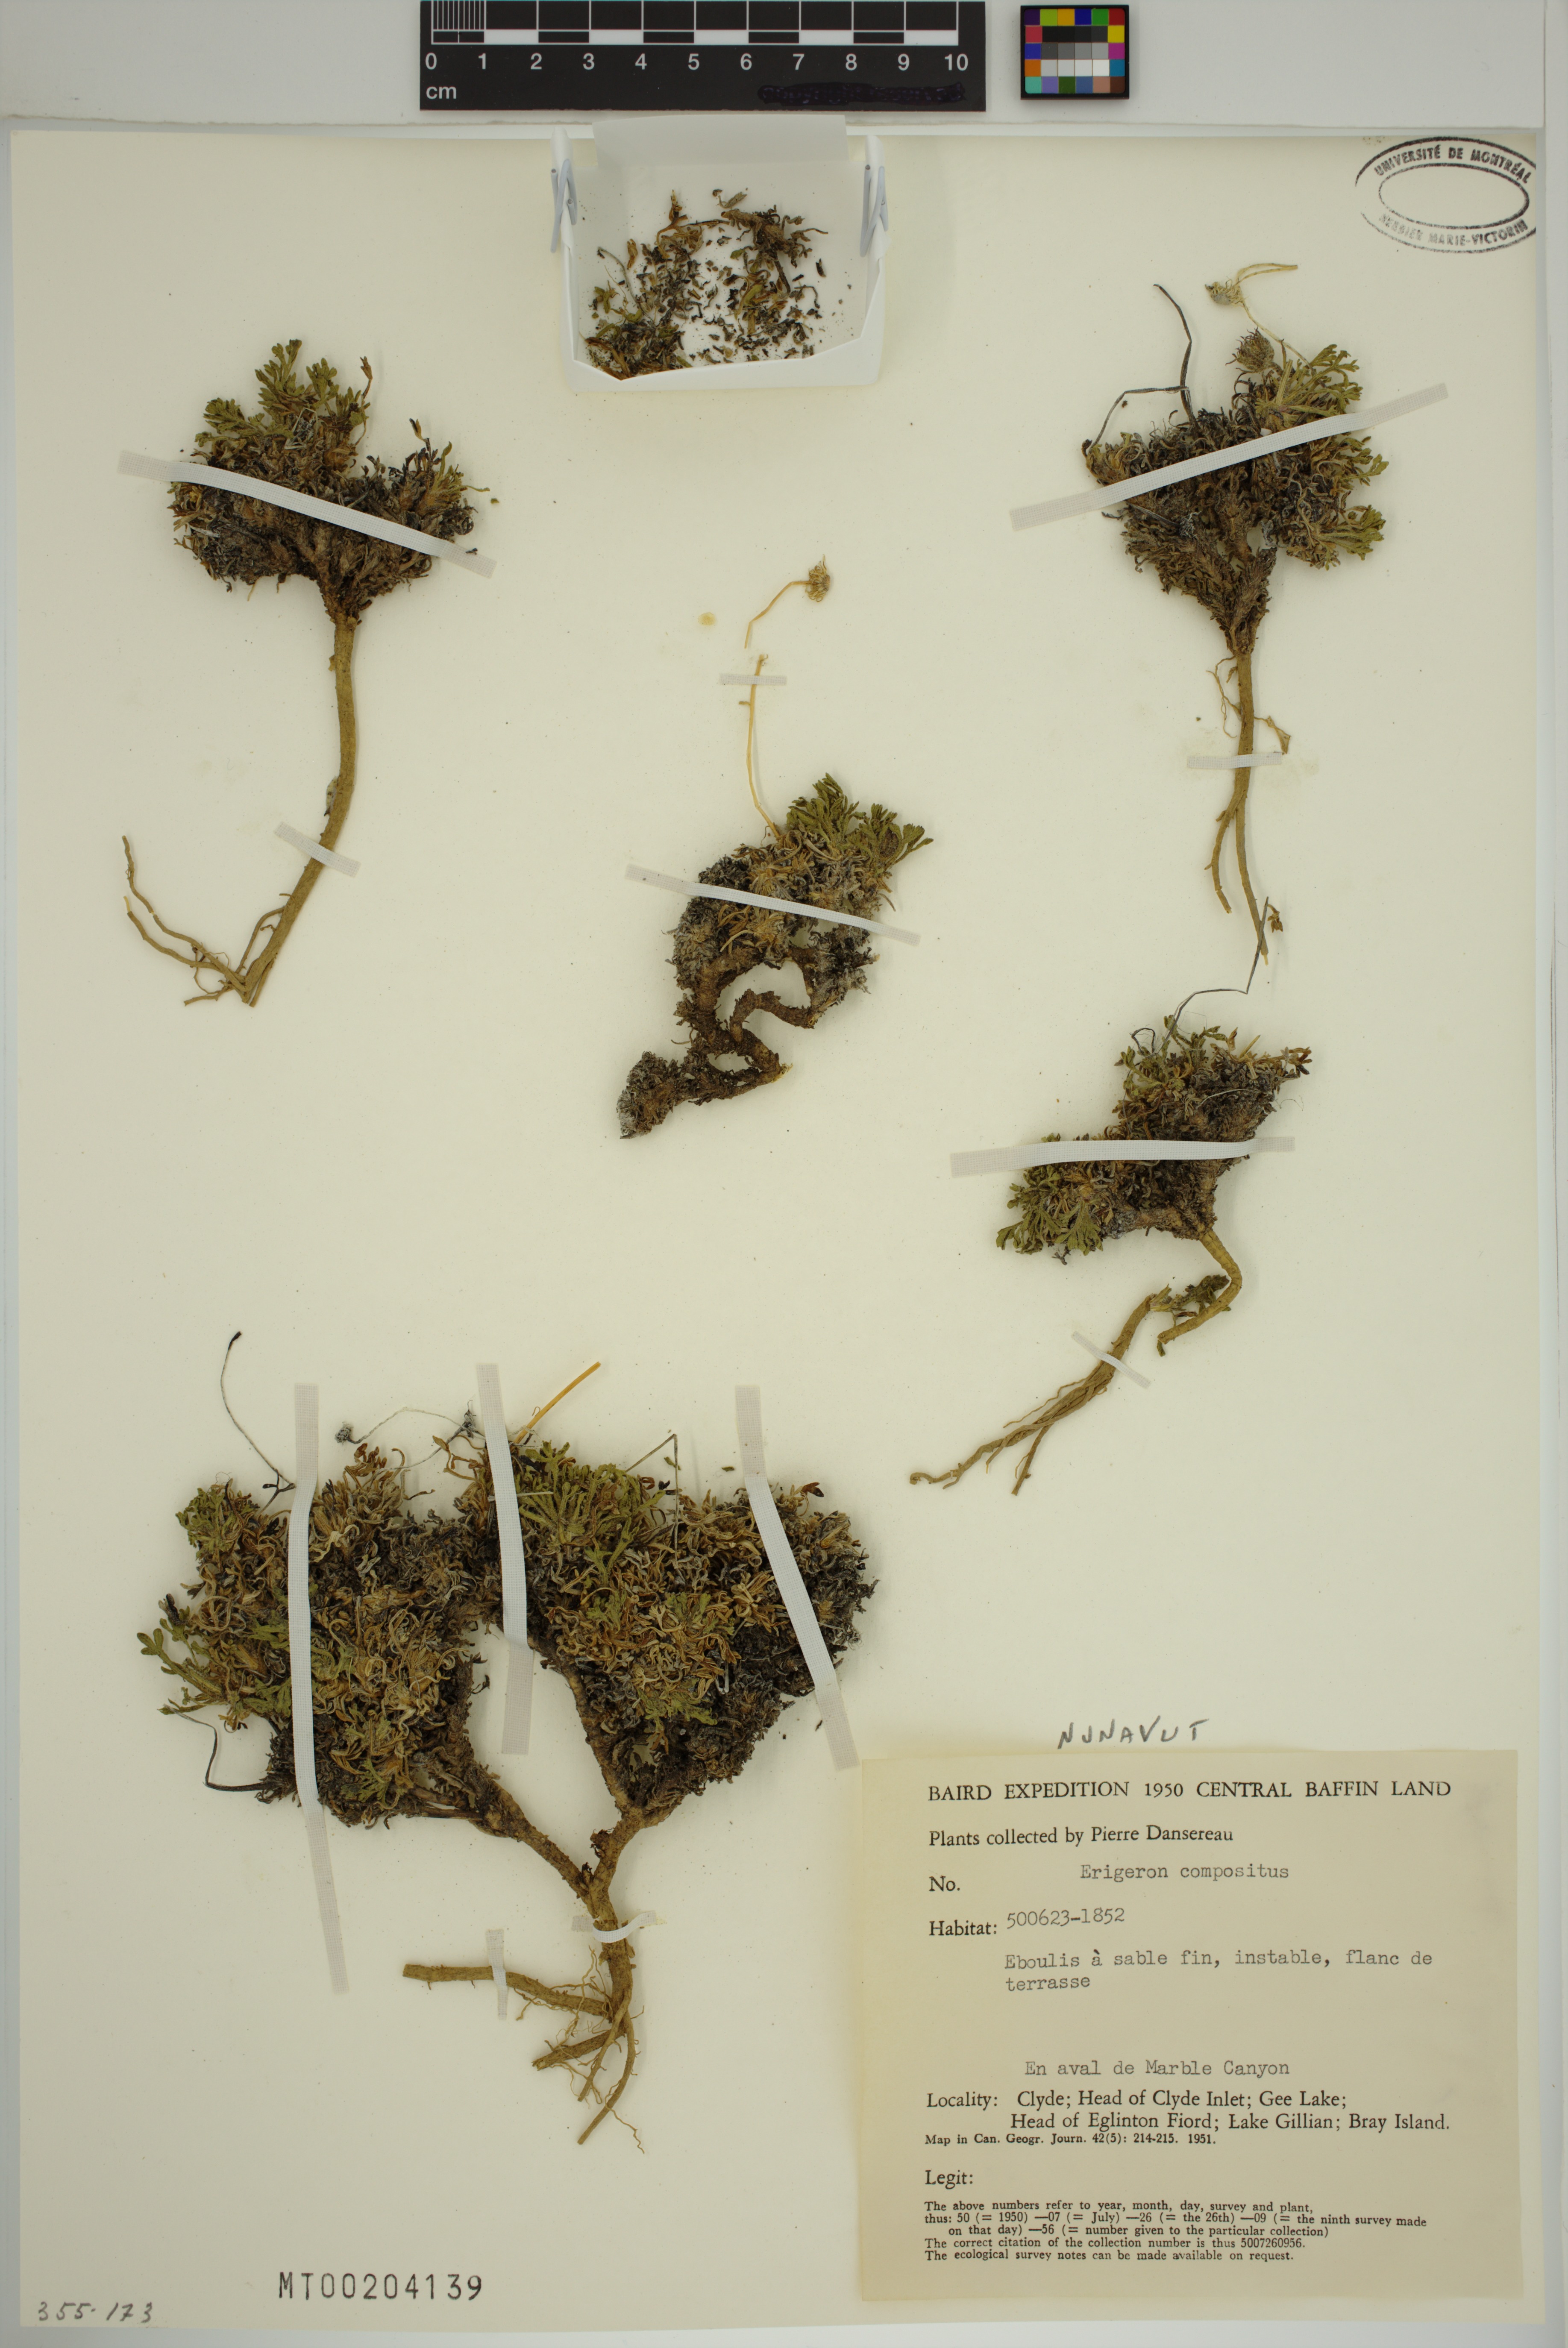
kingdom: Plantae
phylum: Tracheophyta
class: Magnoliopsida
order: Asterales
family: Asteraceae
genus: Erigeron
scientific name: Erigeron compositus
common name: Dwarf mountain fleabane
